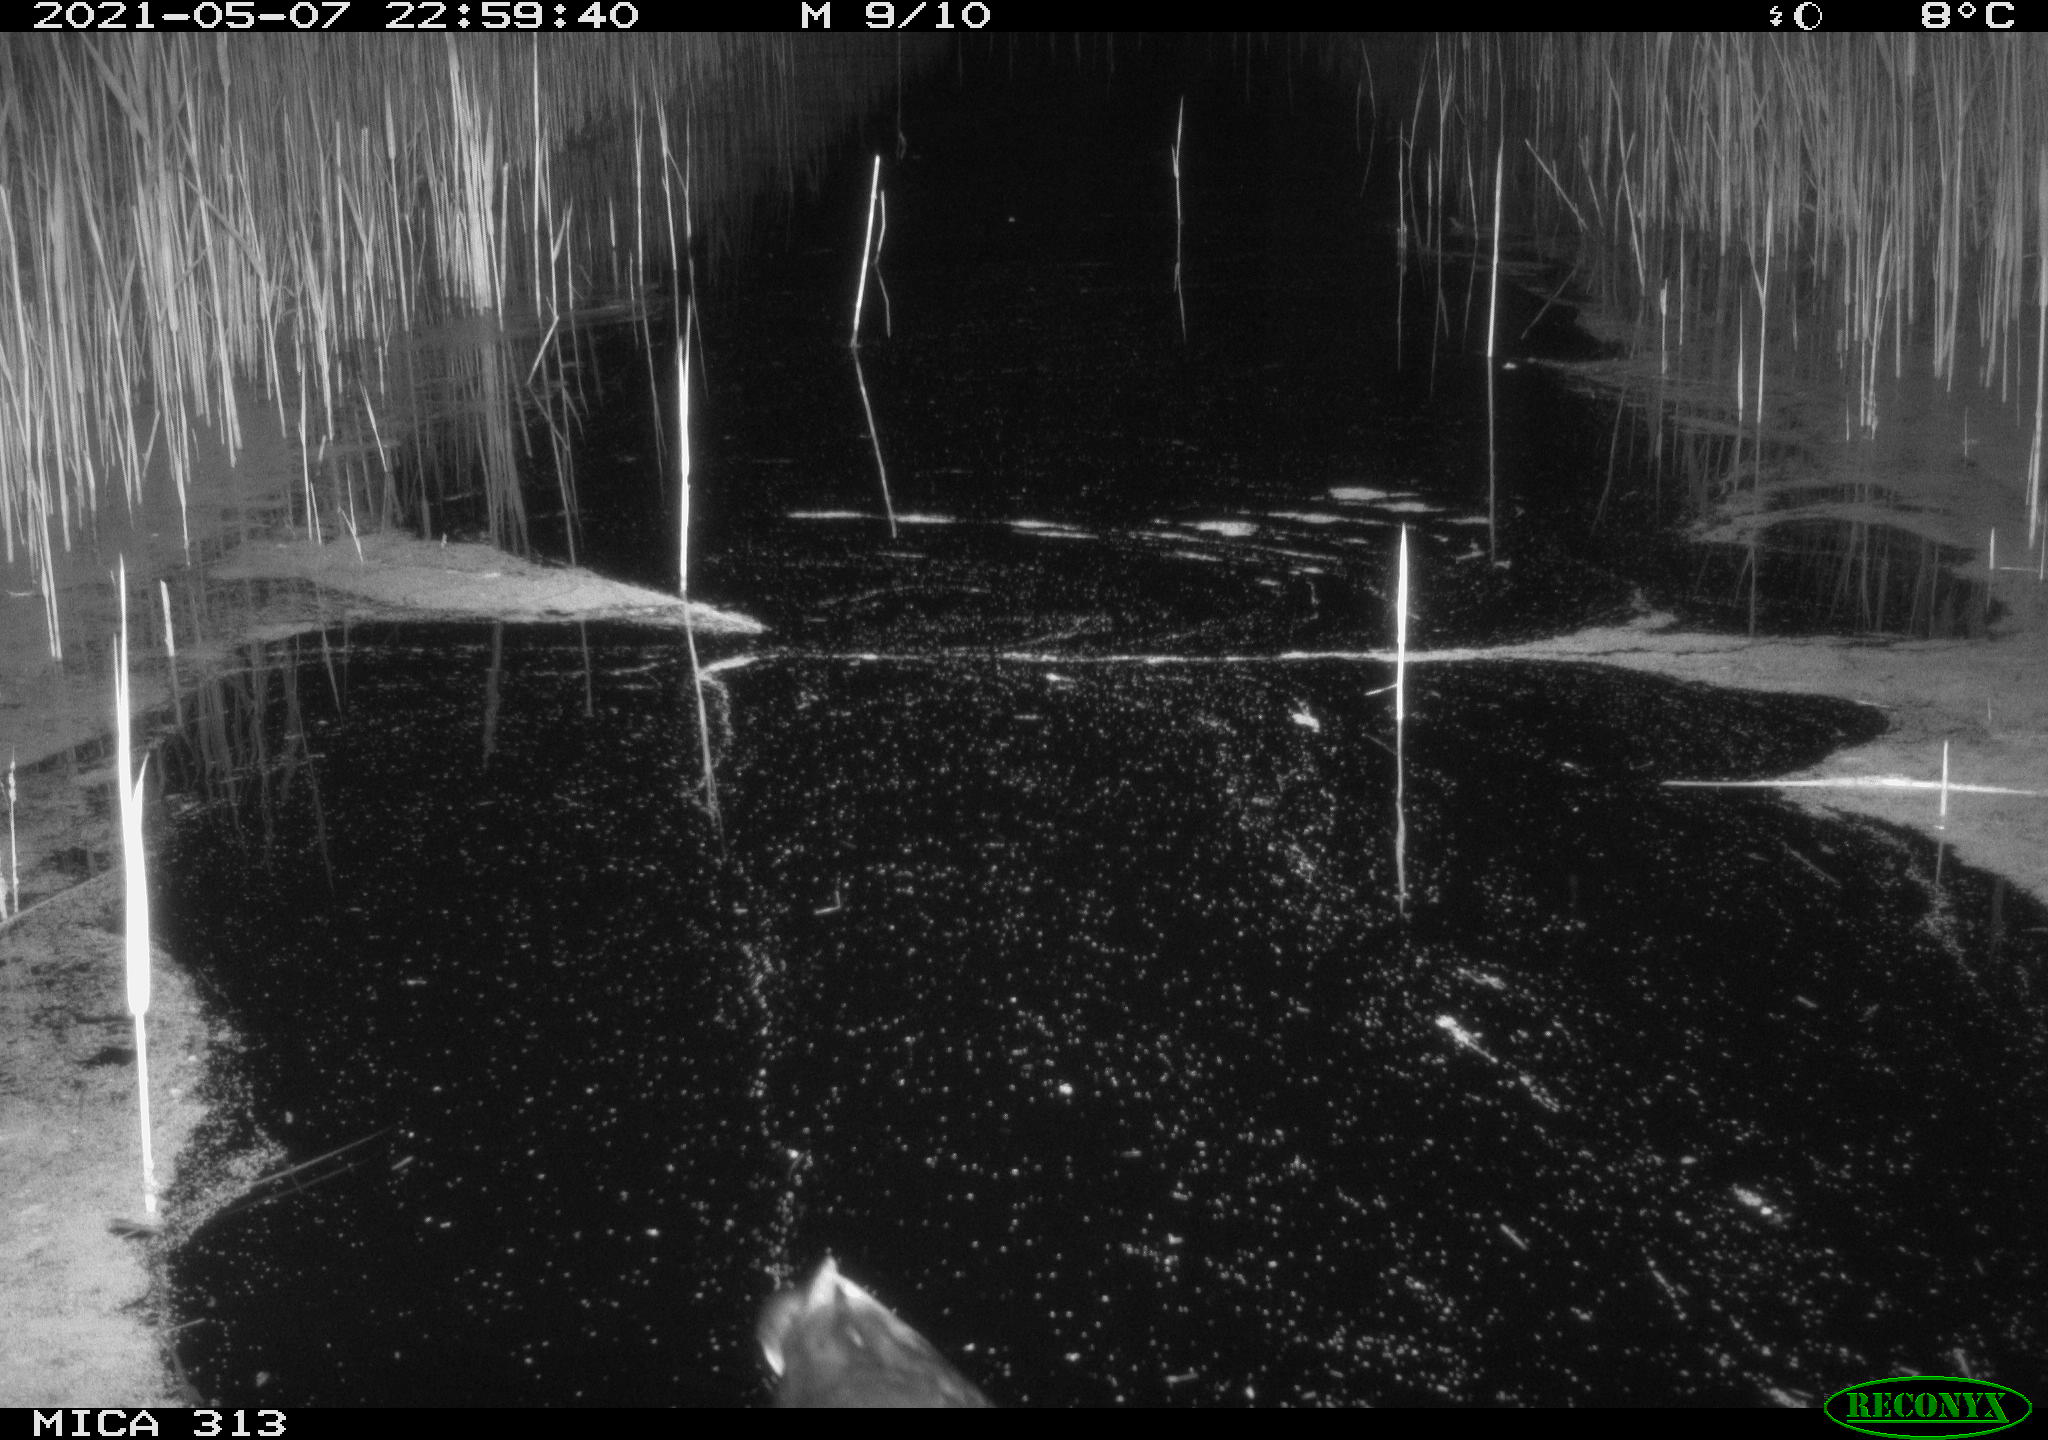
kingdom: Animalia
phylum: Chordata
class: Aves
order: Gruiformes
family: Rallidae
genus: Gallinula
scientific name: Gallinula chloropus
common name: Common moorhen
